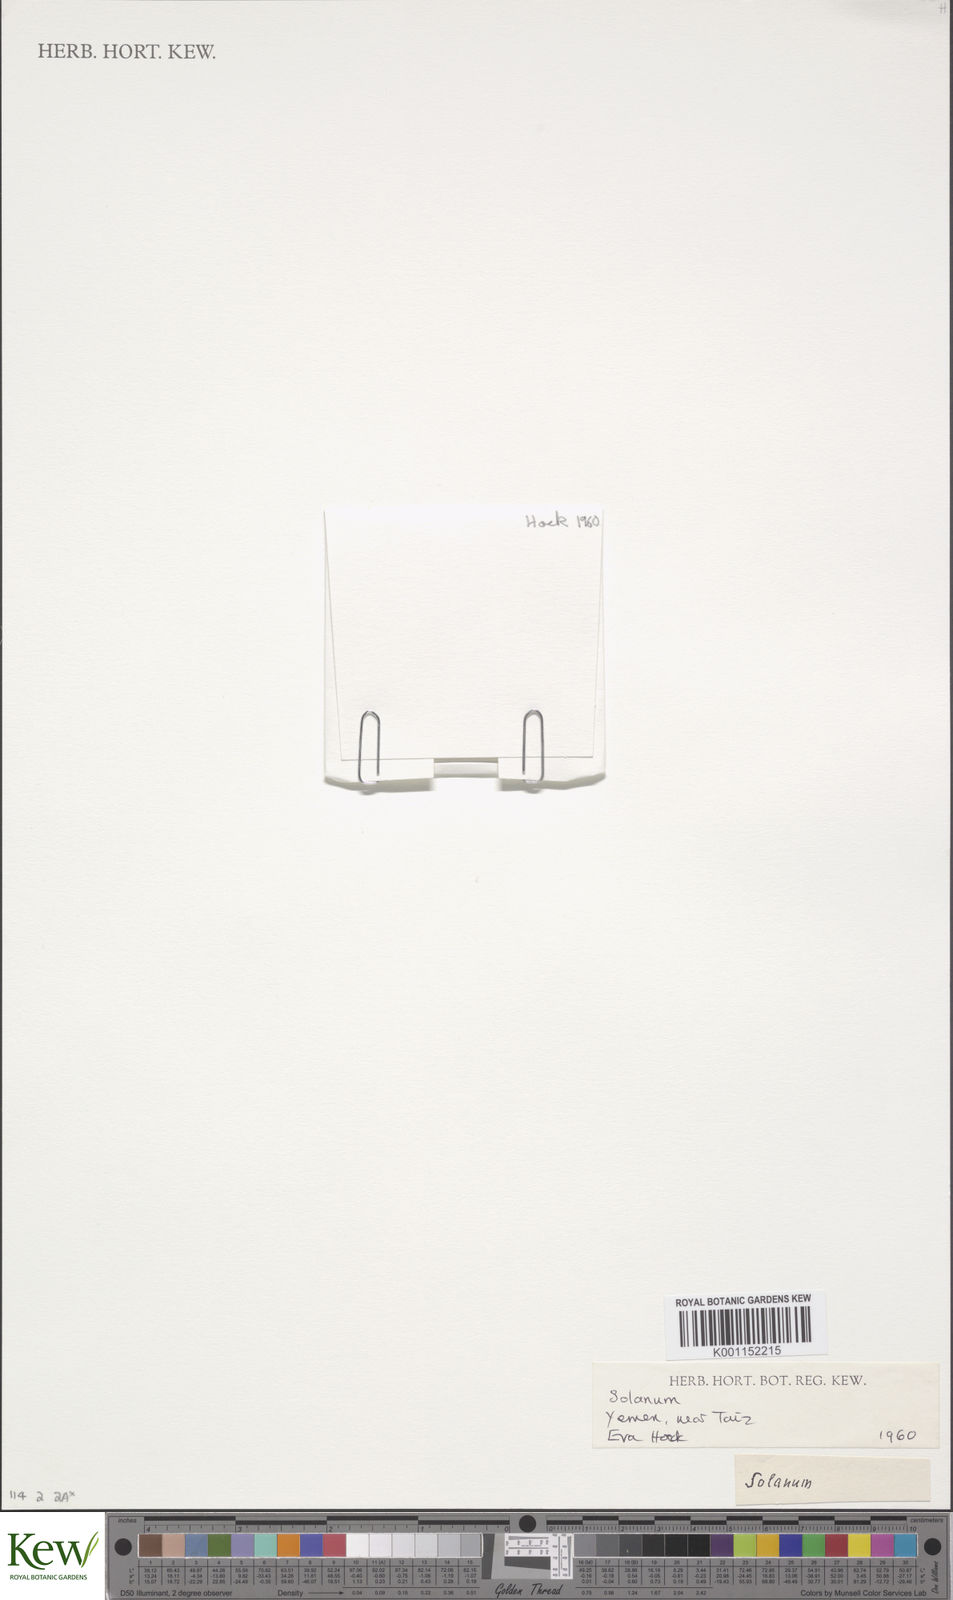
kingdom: Plantae
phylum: Tracheophyta
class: Magnoliopsida
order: Solanales
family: Solanaceae
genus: Solanum
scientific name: Solanum
